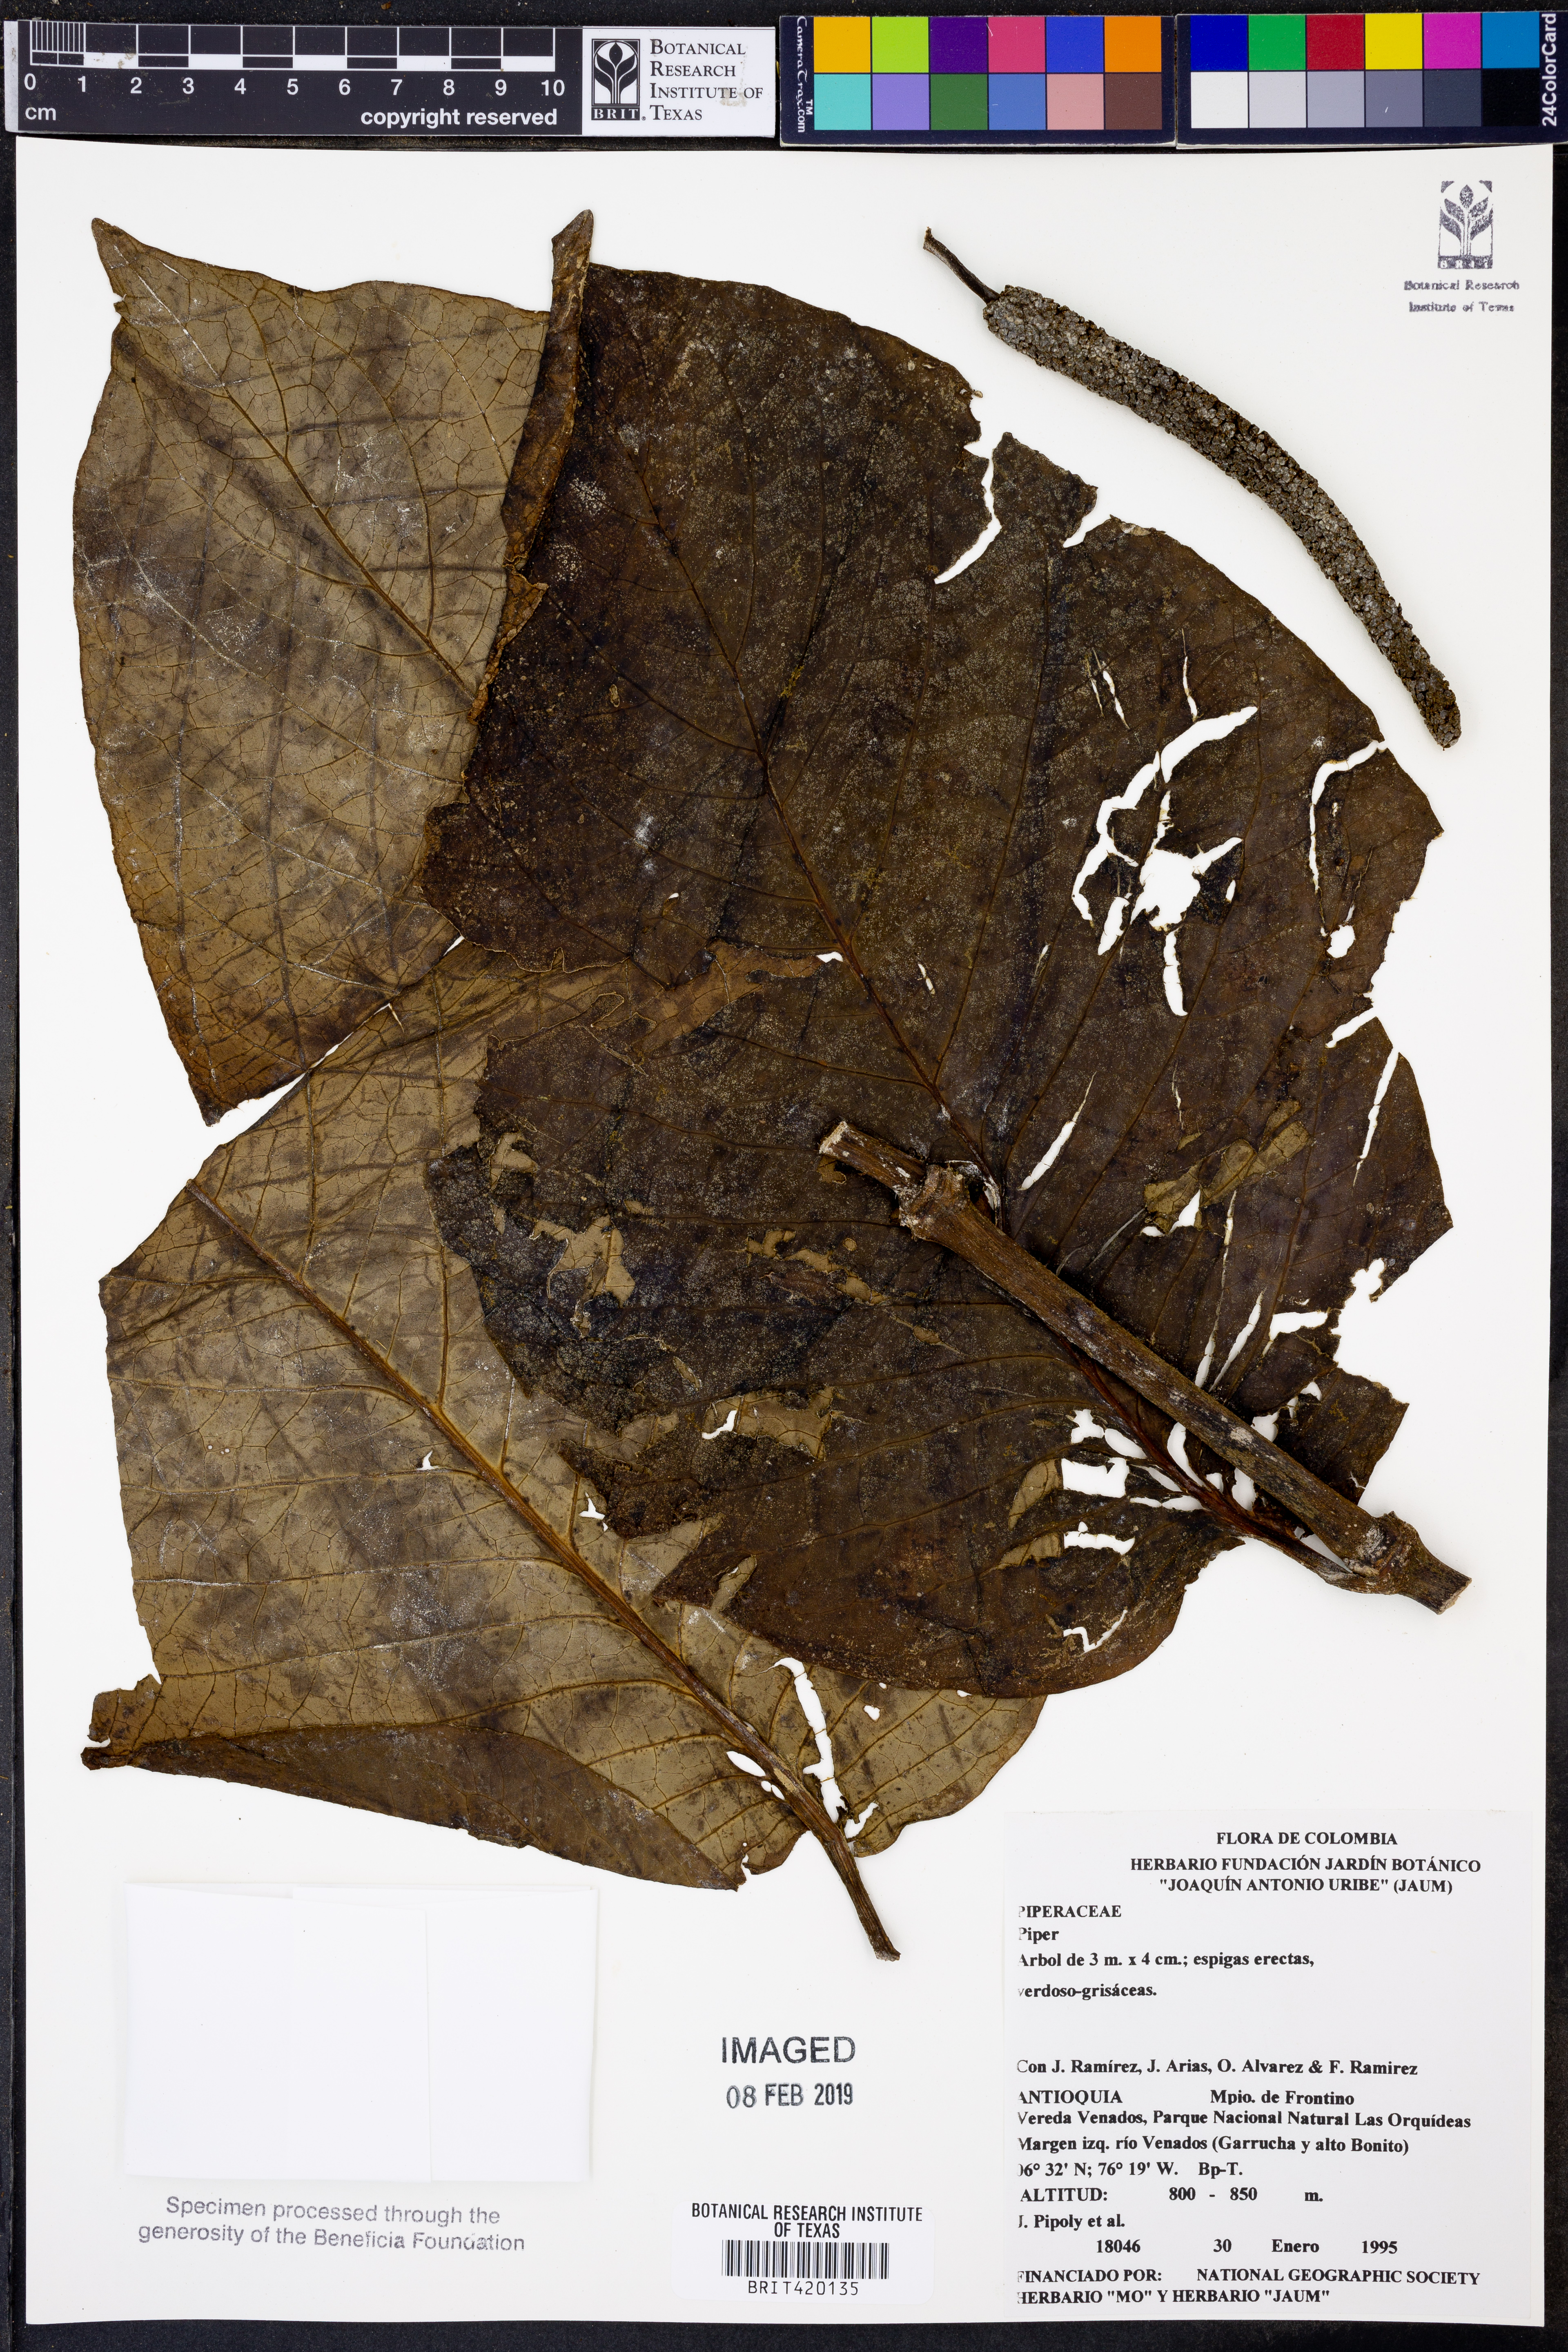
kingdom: Plantae
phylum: Tracheophyta
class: Magnoliopsida
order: Piperales
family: Piperaceae
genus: Piper
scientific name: Piper
